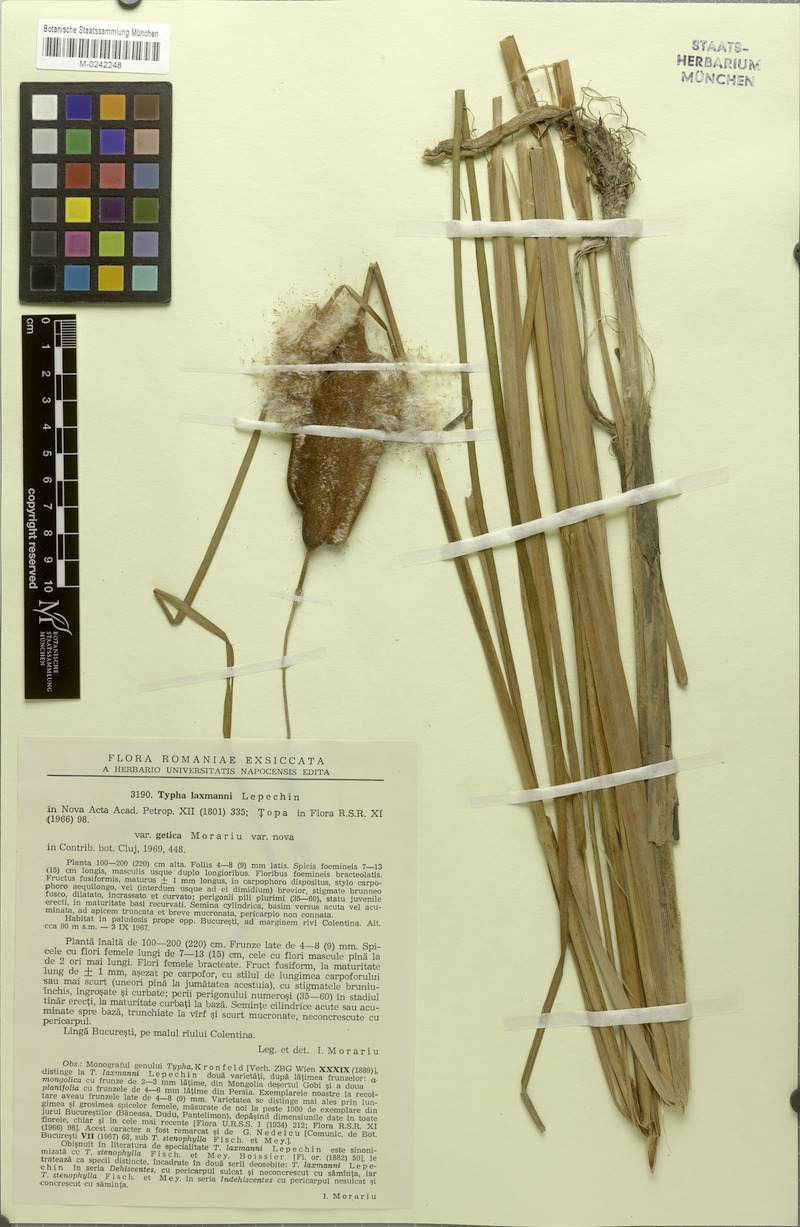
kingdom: Plantae
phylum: Tracheophyta
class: Liliopsida
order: Poales
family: Typhaceae
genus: Typha
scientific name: Typha laxmannii
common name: Laxman’s bulrush
